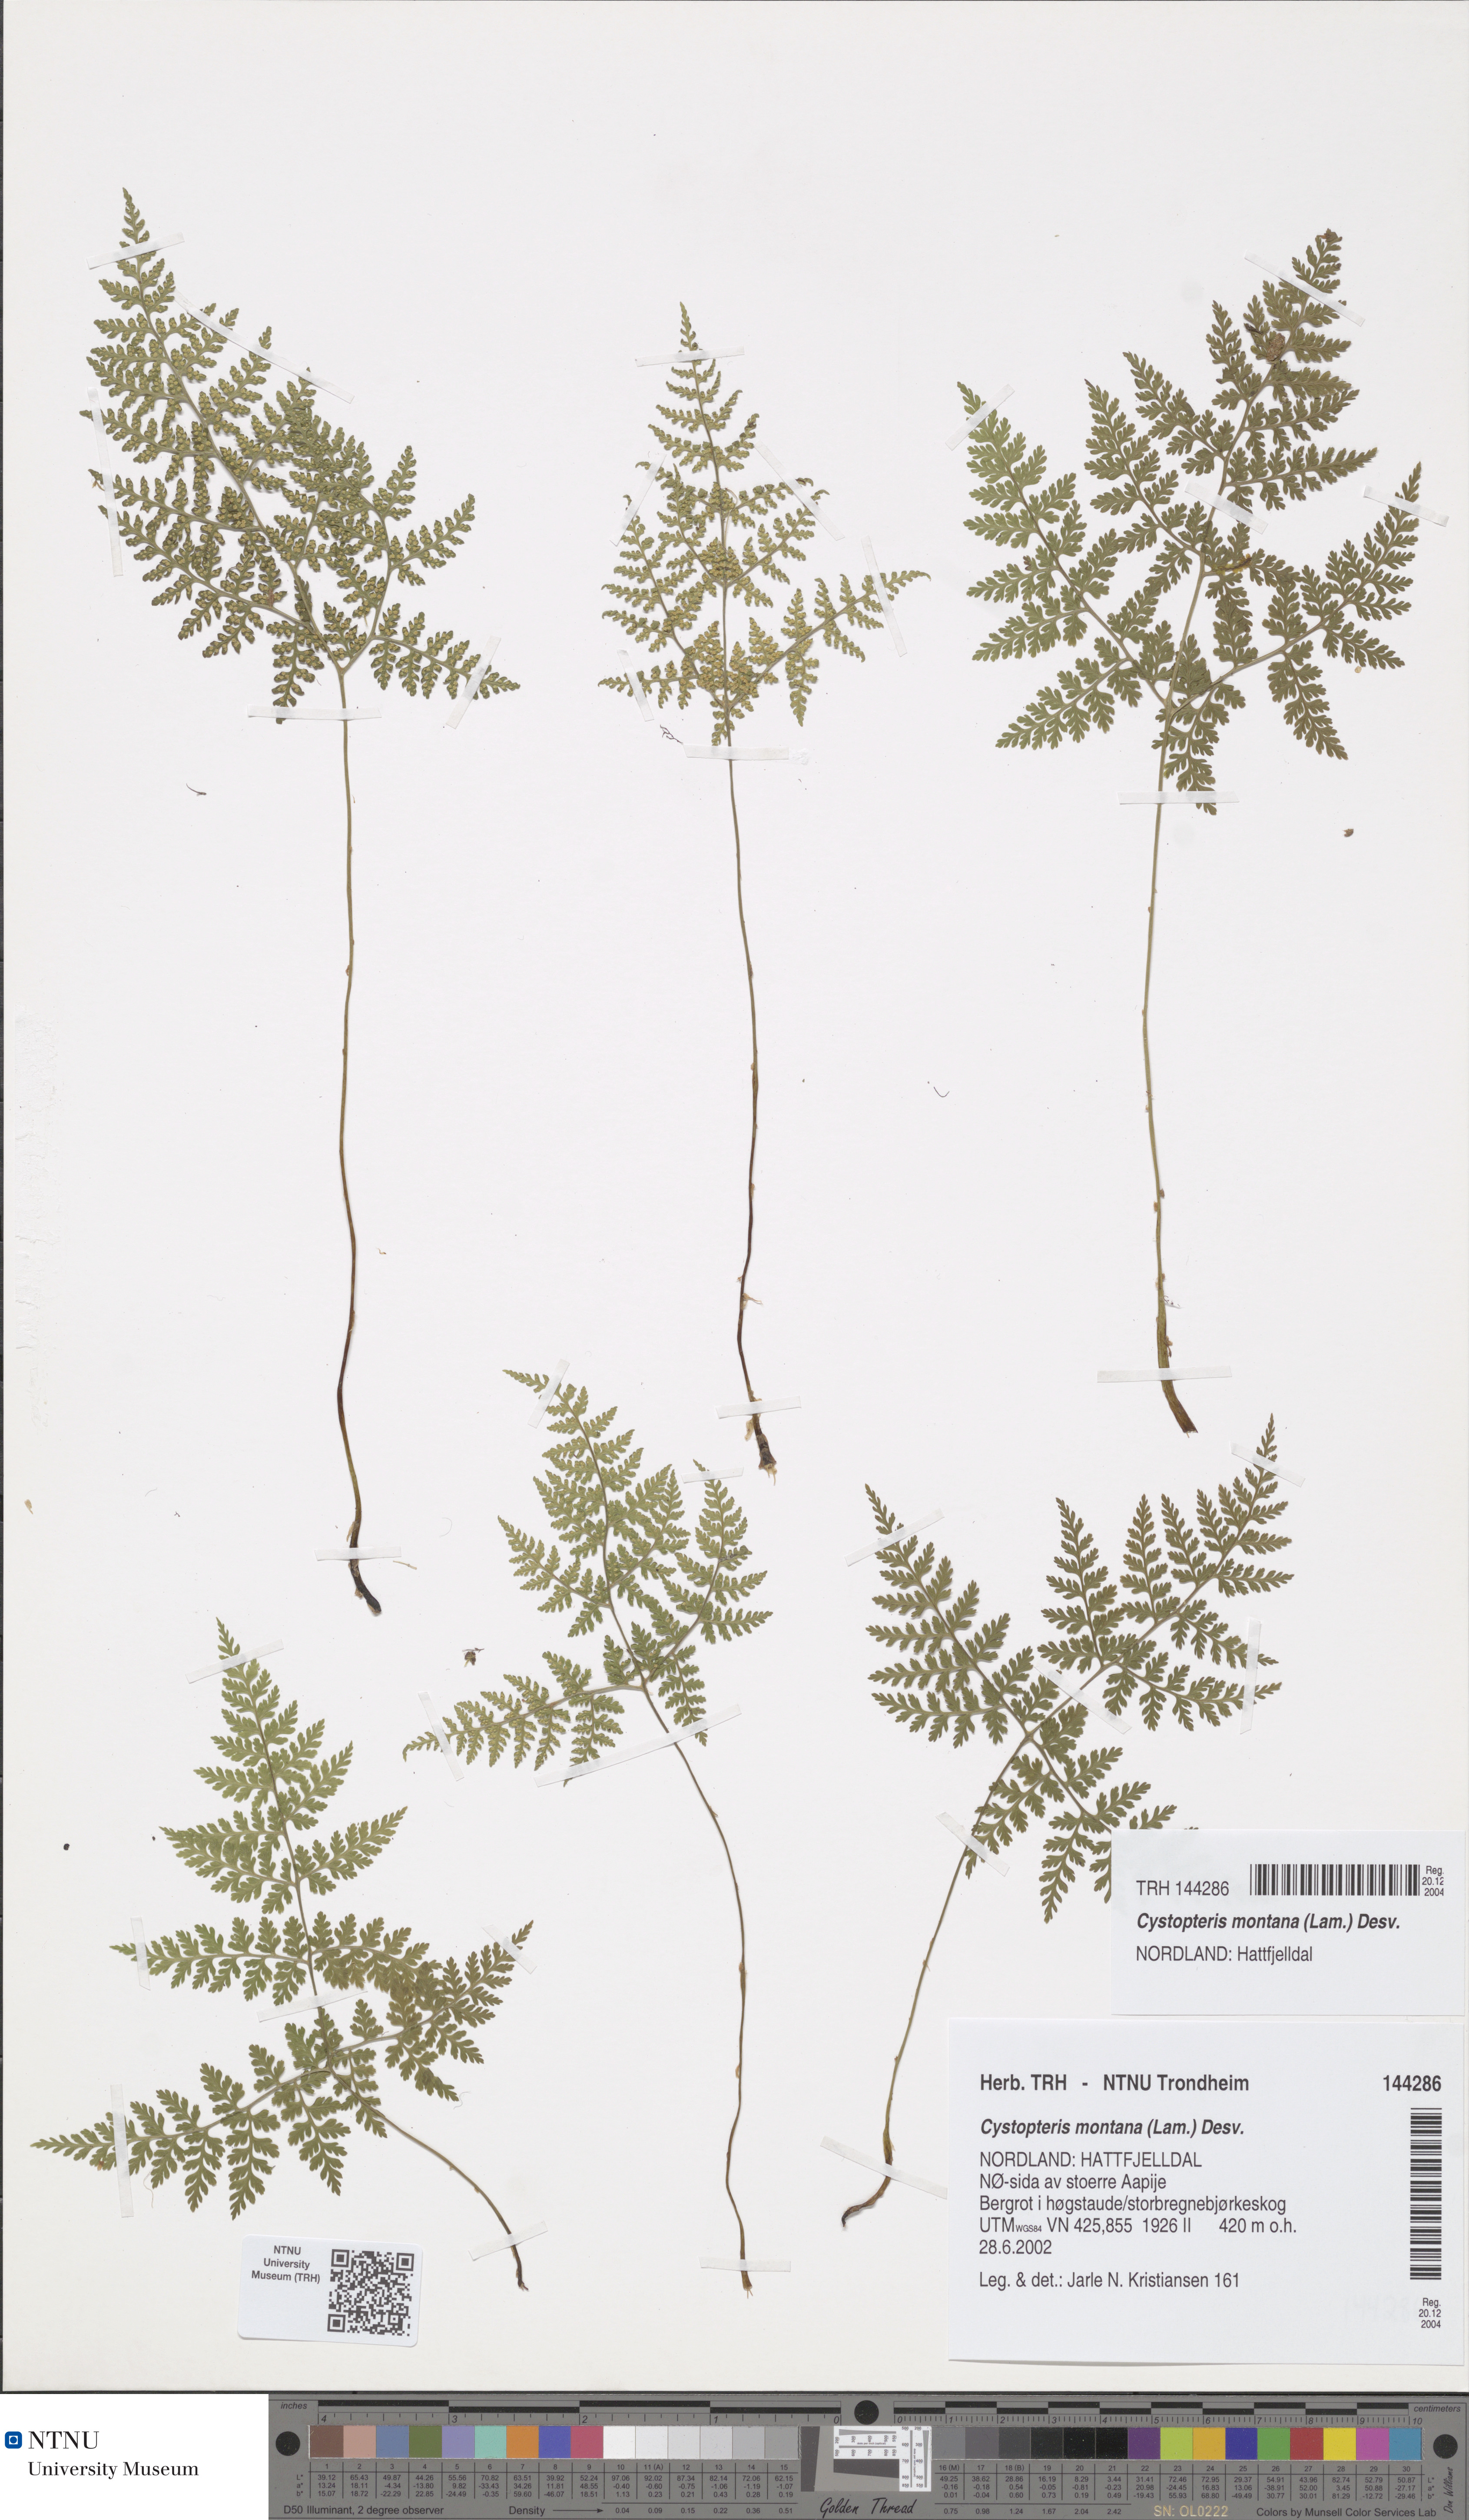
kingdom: Plantae
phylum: Tracheophyta
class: Polypodiopsida
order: Polypodiales
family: Cystopteridaceae
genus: Cystopteris
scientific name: Cystopteris montana
